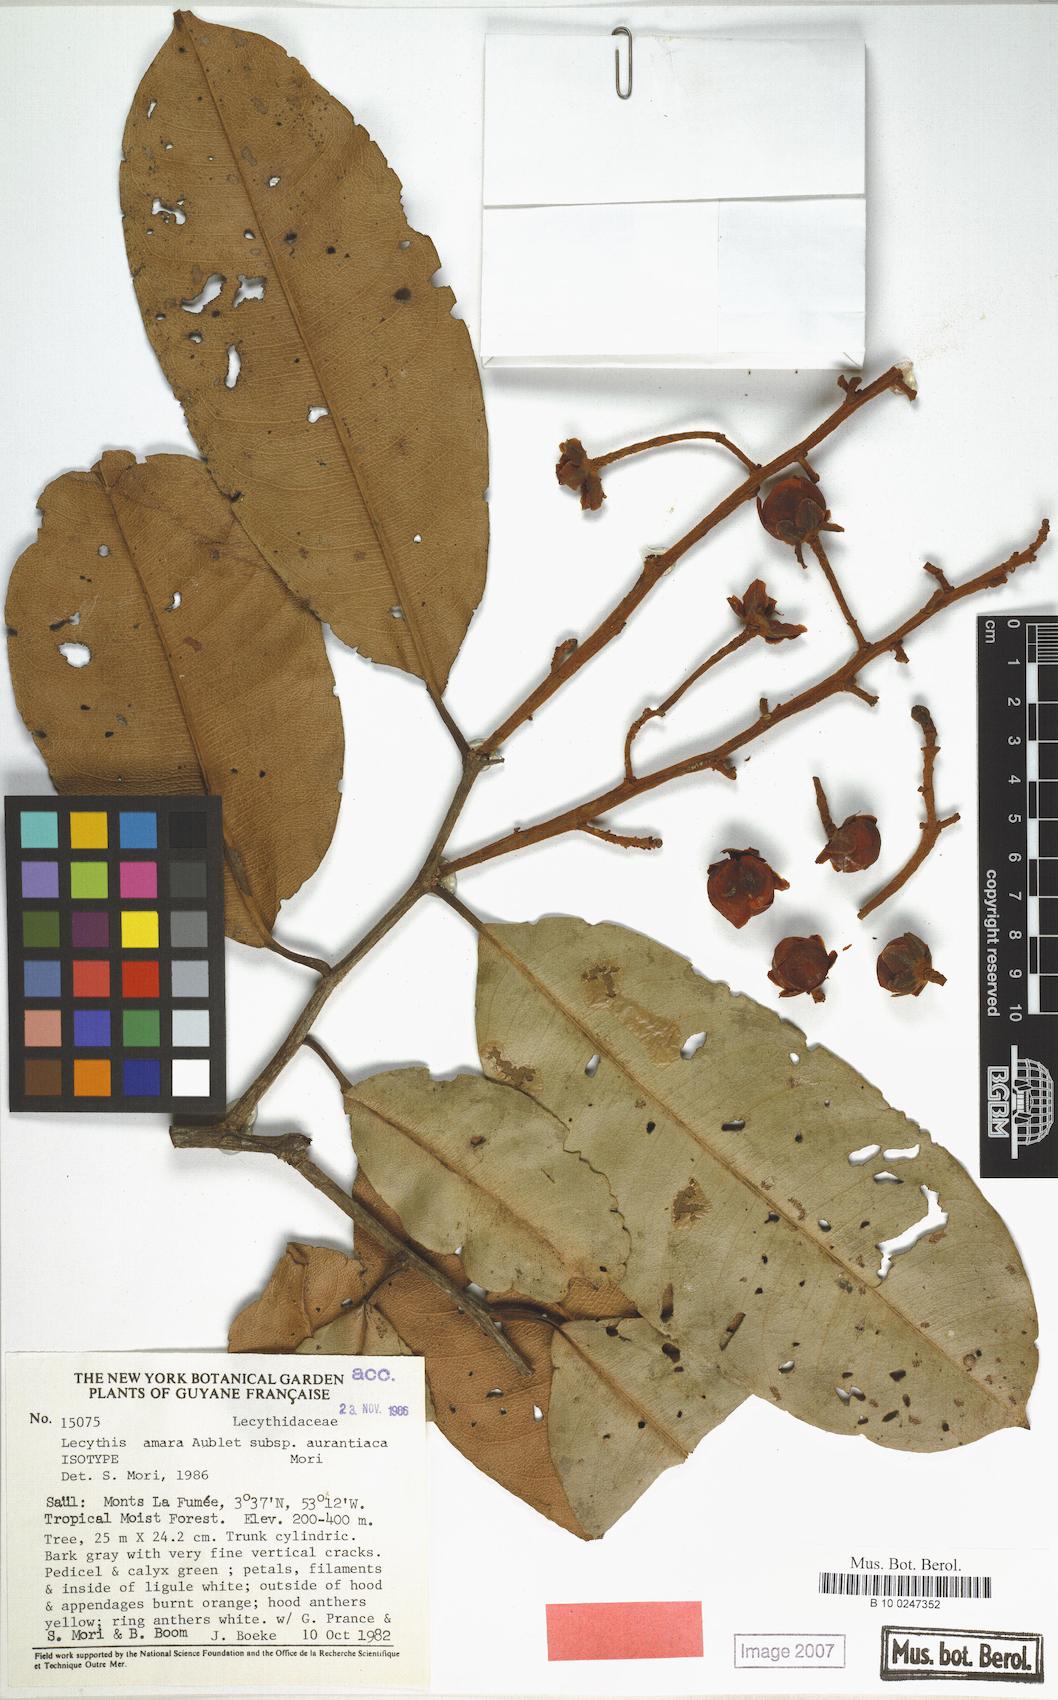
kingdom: Plantae
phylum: Tracheophyta
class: Magnoliopsida
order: Ericales
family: Lecythidaceae
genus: Lecythis
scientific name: Lecythis idatimon
